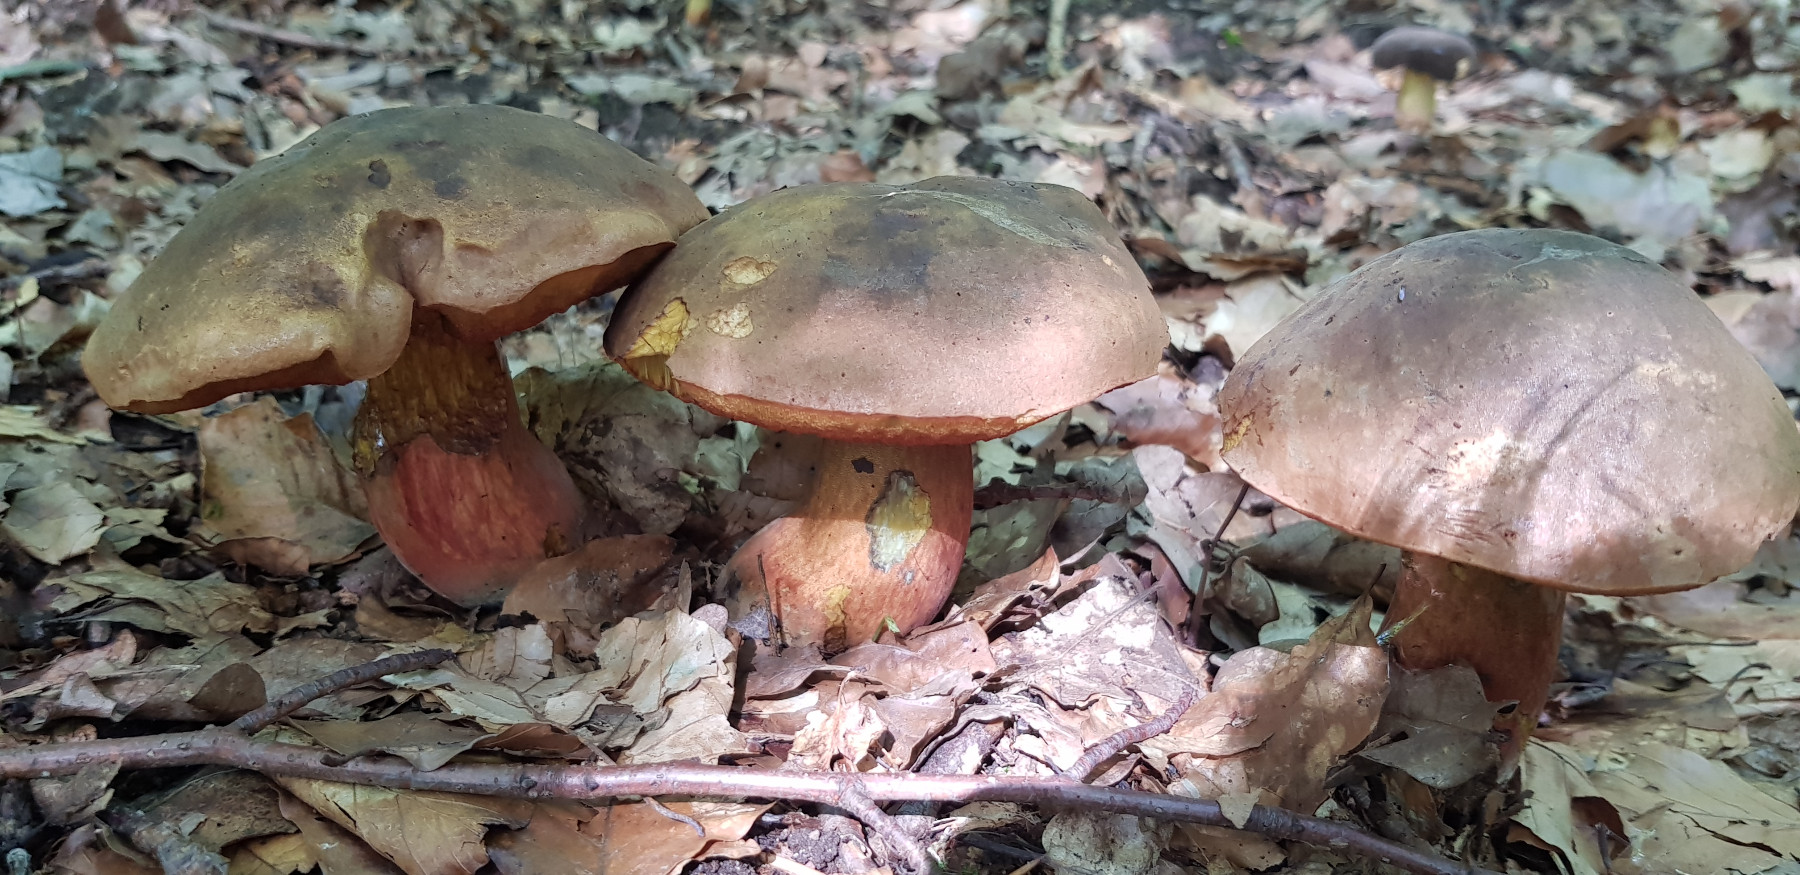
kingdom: Fungi
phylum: Basidiomycota
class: Agaricomycetes
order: Boletales
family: Boletaceae
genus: Neoboletus
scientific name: Neoboletus erythropus
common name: punktstokket indigorørhat
